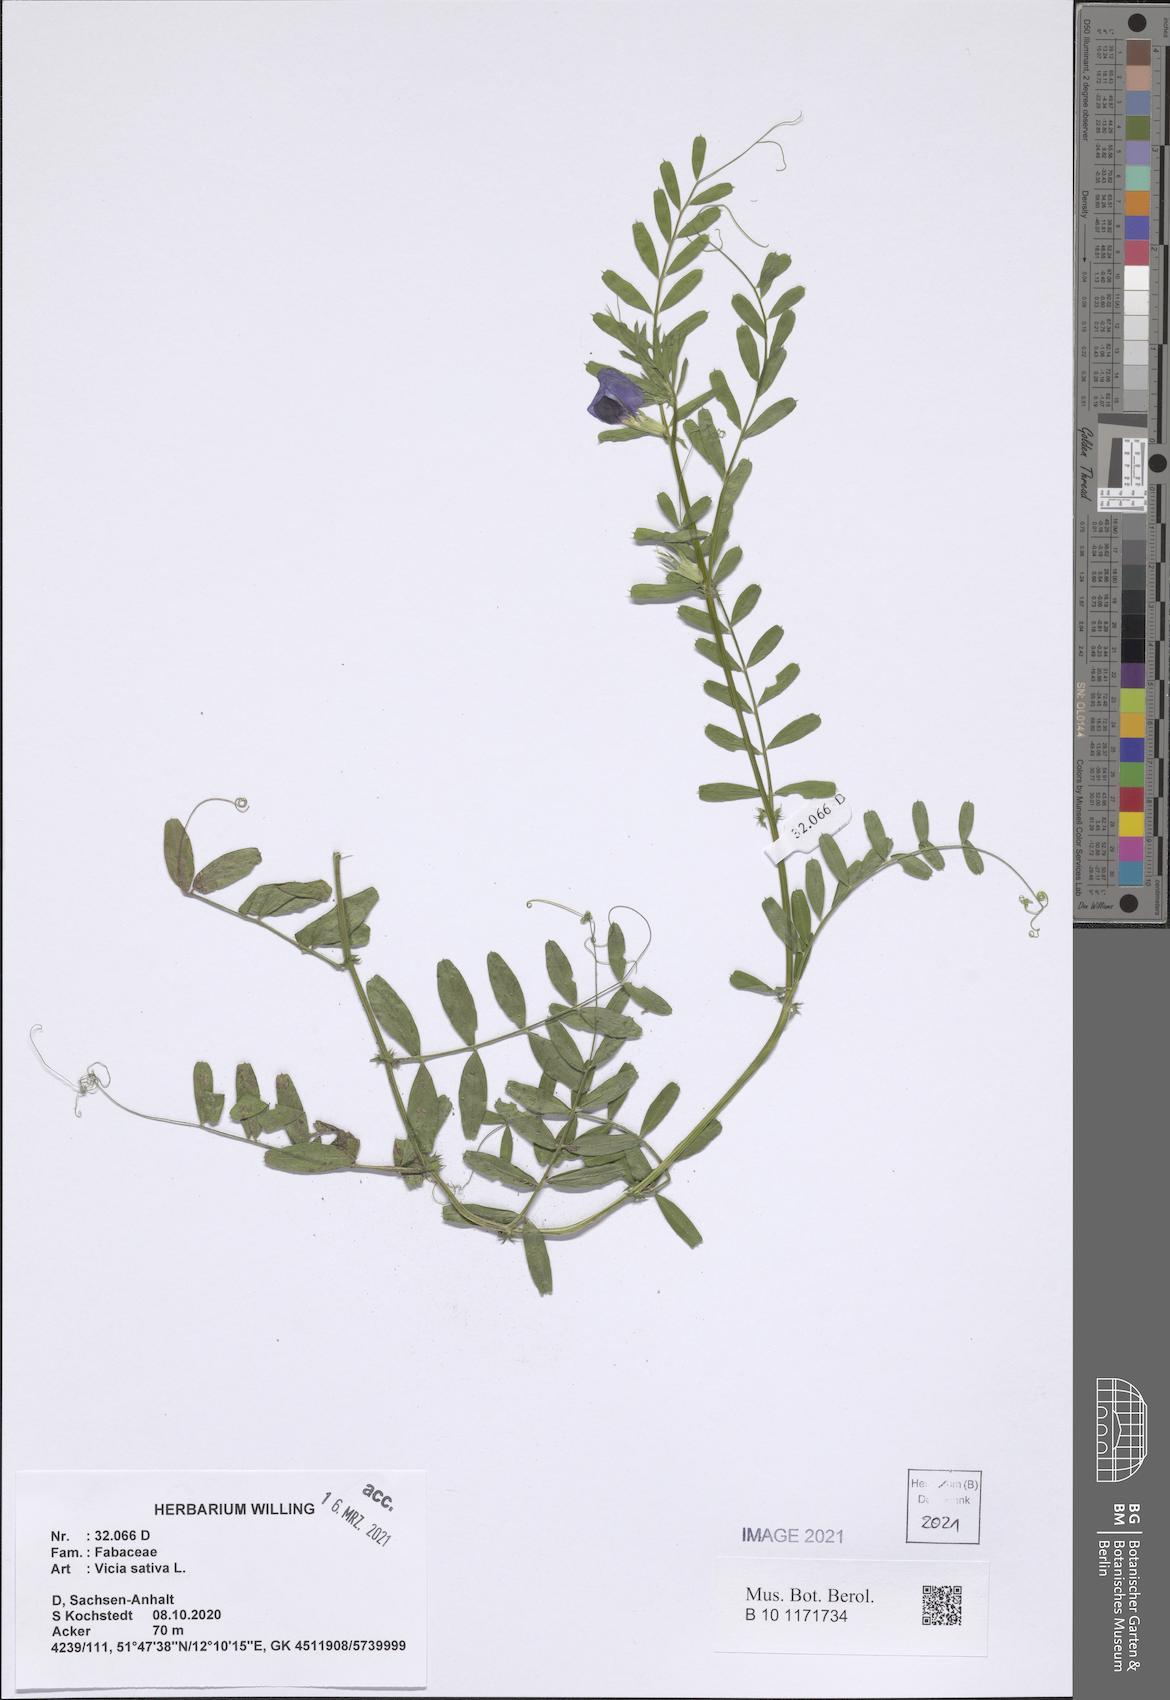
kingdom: Plantae
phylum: Tracheophyta
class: Magnoliopsida
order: Fabales
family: Fabaceae
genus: Vicia
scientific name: Vicia sativa
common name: Garden vetch
